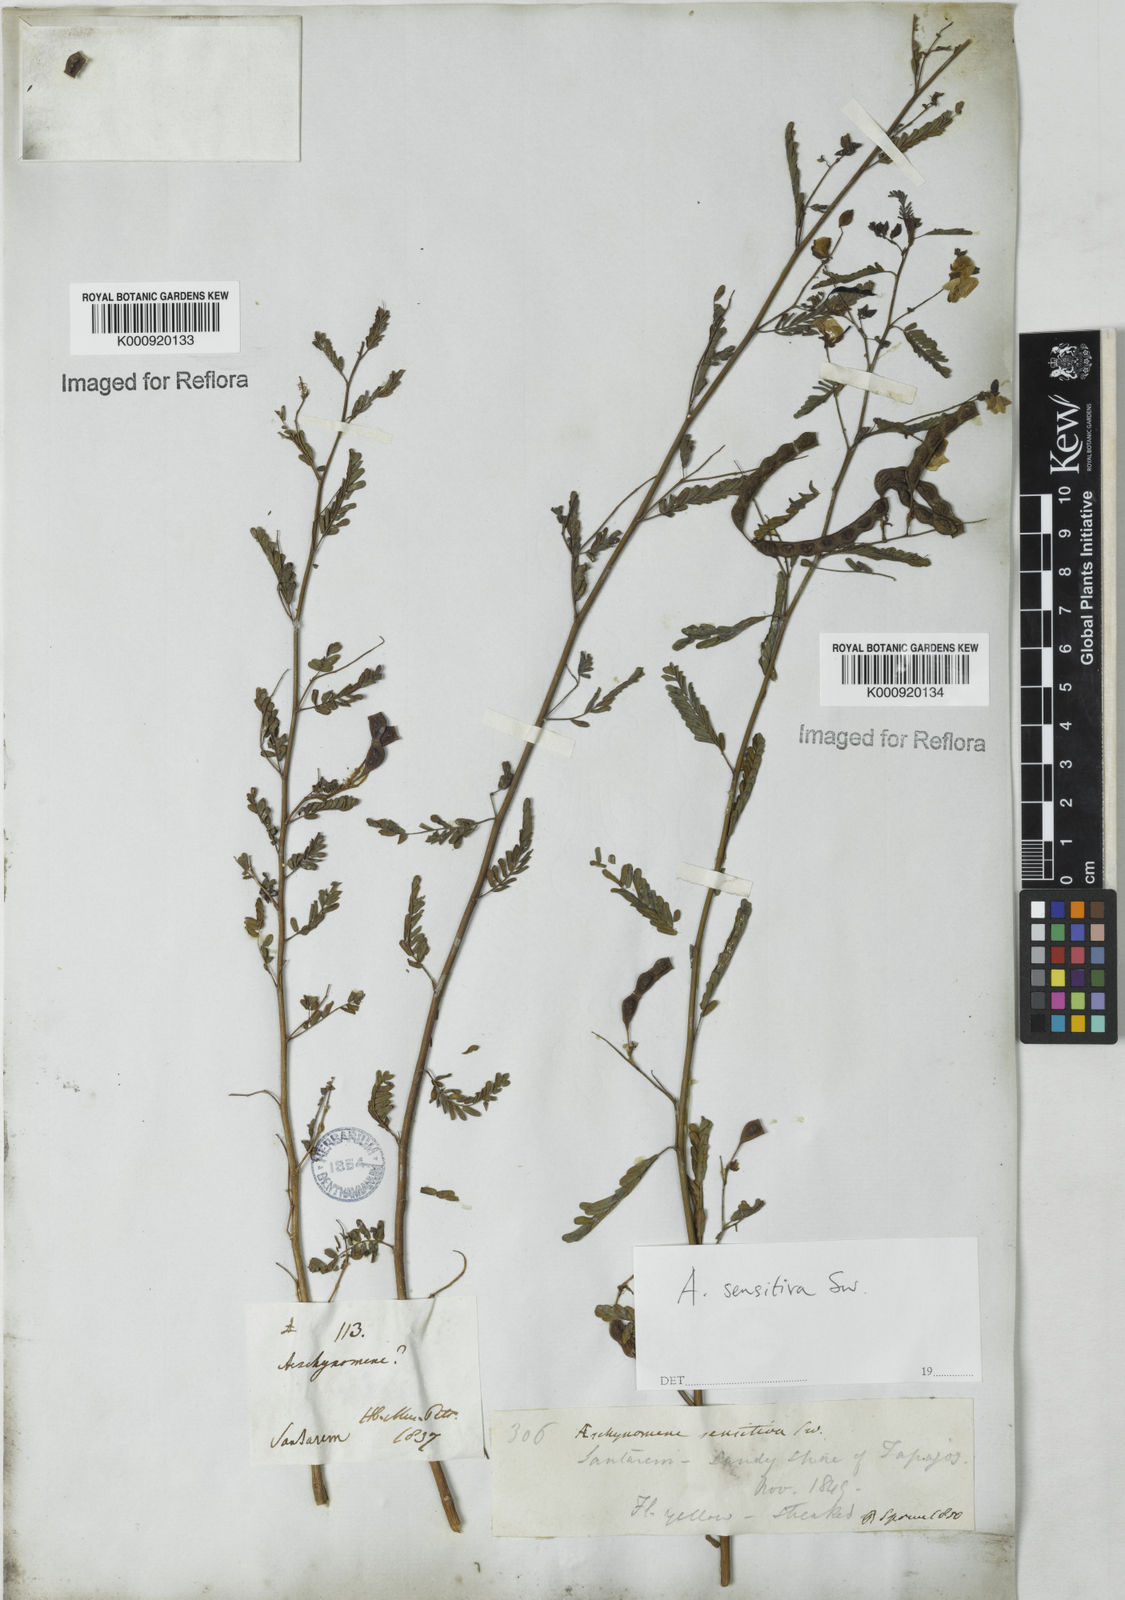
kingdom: Plantae
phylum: Tracheophyta
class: Magnoliopsida
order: Fabales
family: Fabaceae
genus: Aeschynomene
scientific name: Aeschynomene sensitiva
